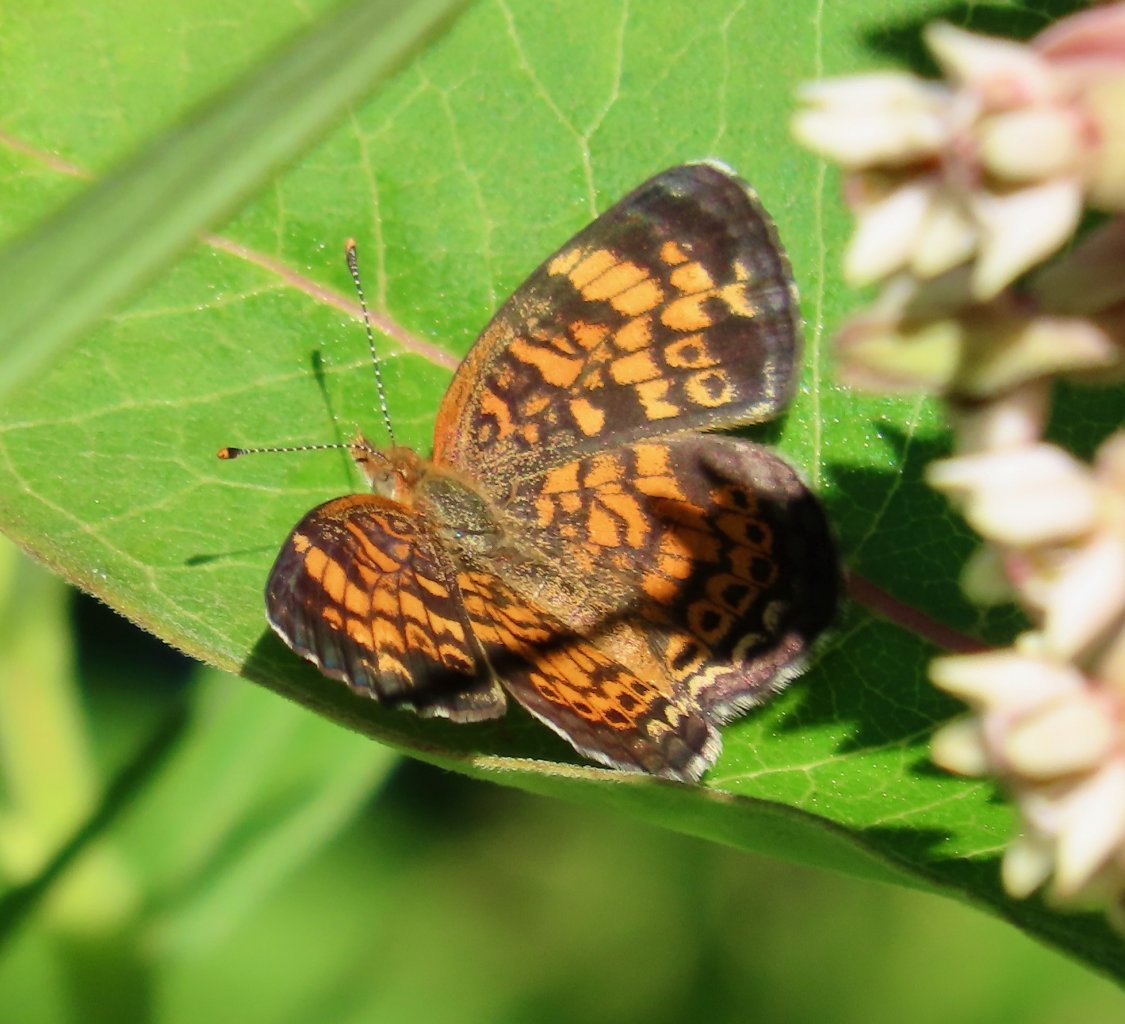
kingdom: Animalia
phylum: Arthropoda
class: Insecta
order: Lepidoptera
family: Nymphalidae
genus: Phyciodes
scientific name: Phyciodes tharos
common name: Pearl Crescent
